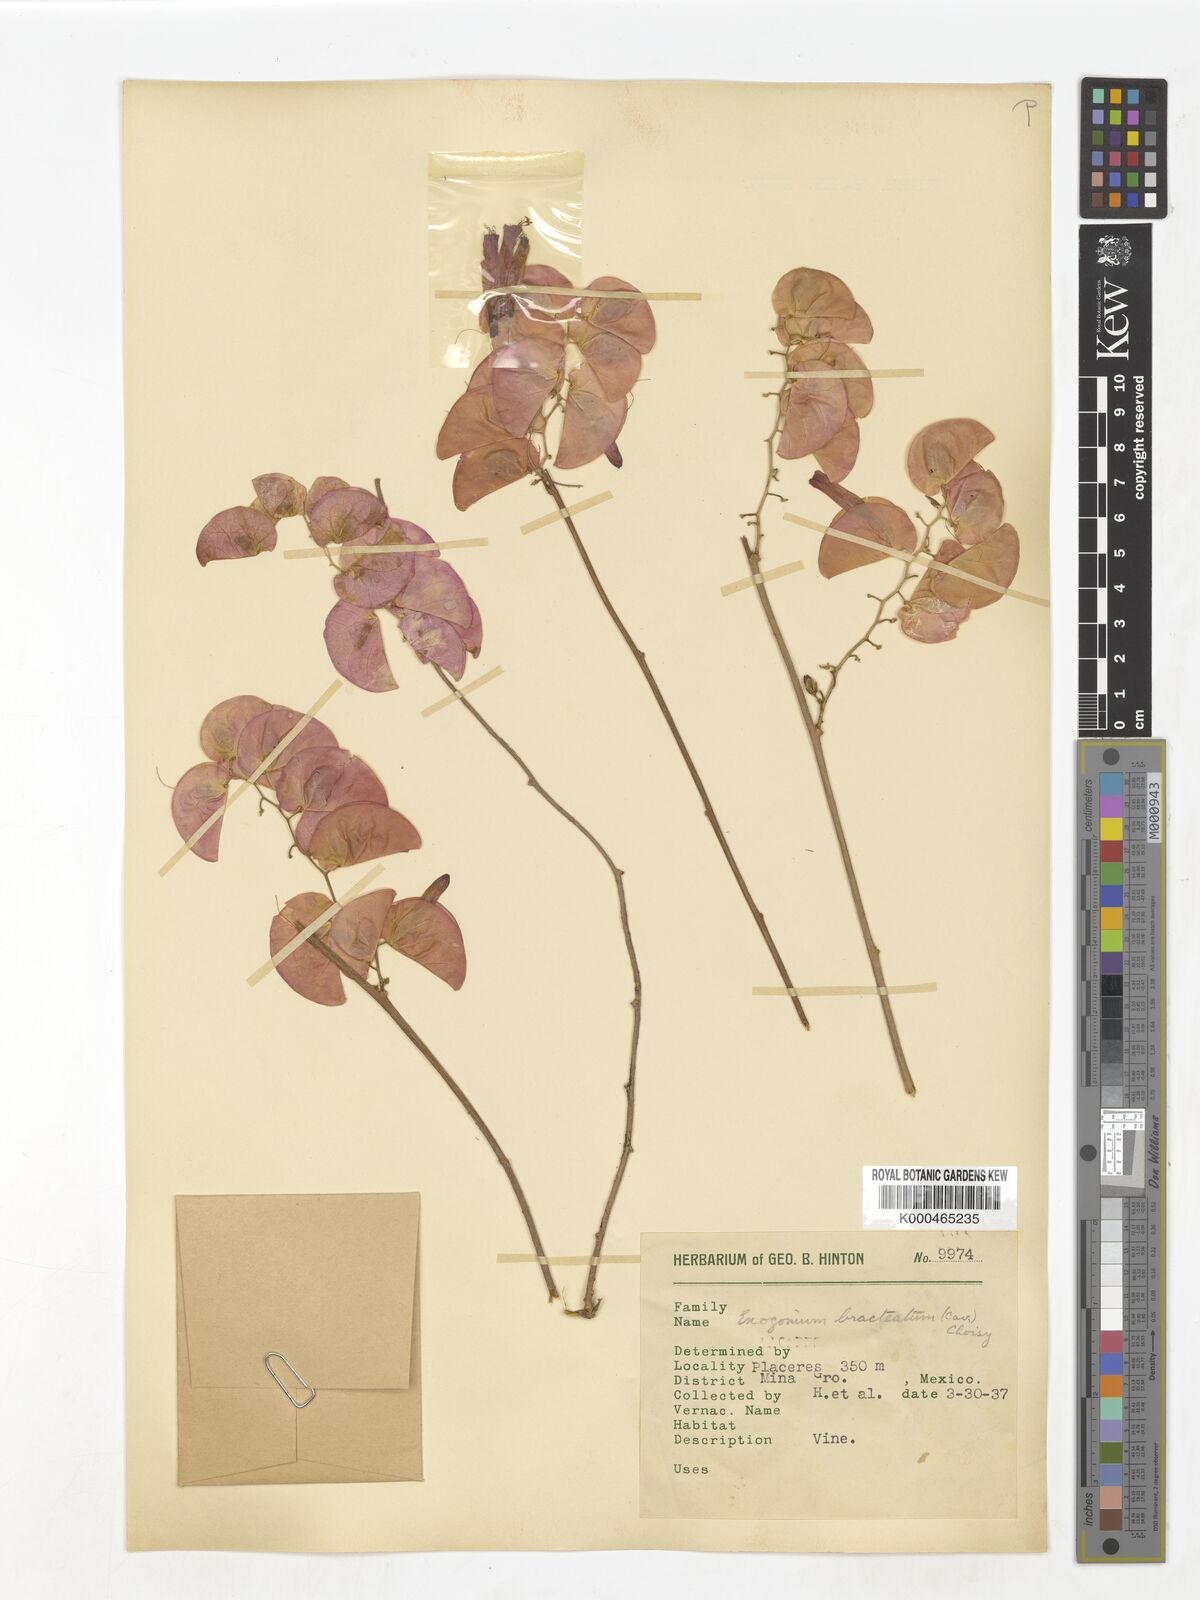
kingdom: Plantae
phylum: Tracheophyta
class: Magnoliopsida
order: Solanales
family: Convolvulaceae
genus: Ipomoea
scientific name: Ipomoea bracteata
